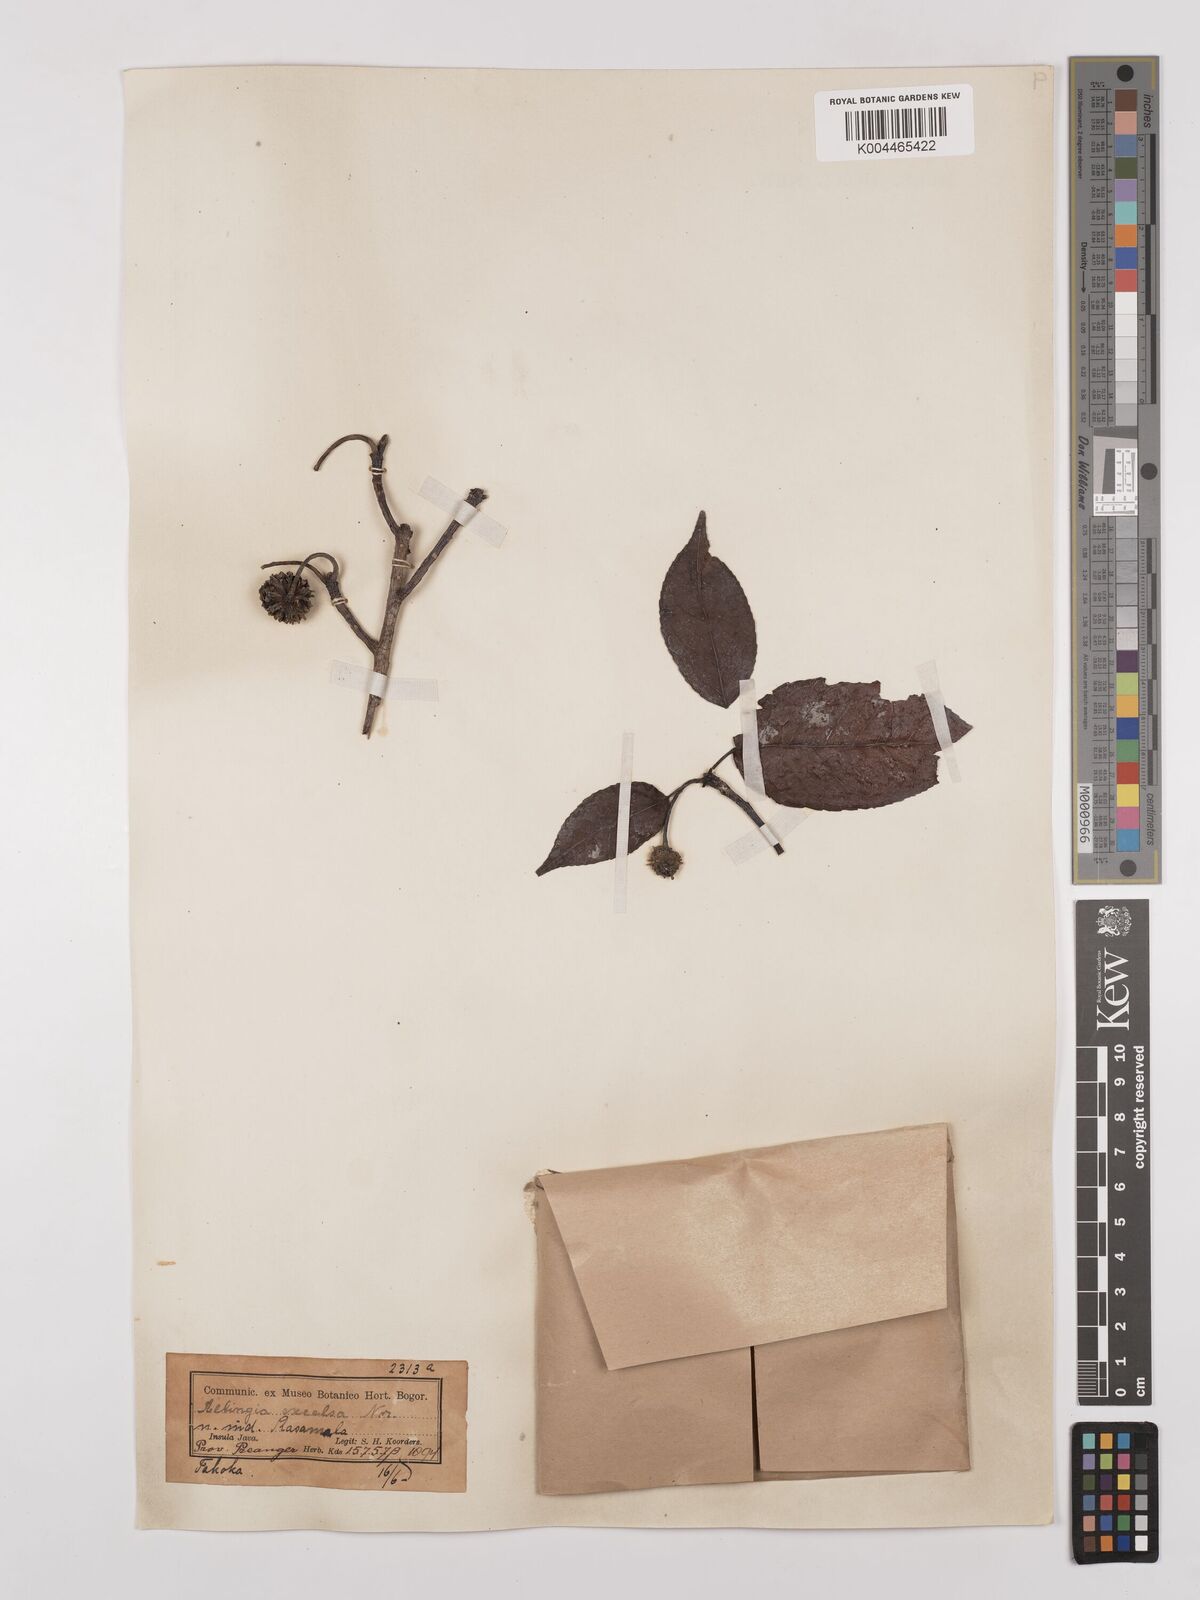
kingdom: Plantae
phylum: Tracheophyta
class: Magnoliopsida
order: Saxifragales
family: Altingiaceae
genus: Liquidambar
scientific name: Liquidambar excelsa
